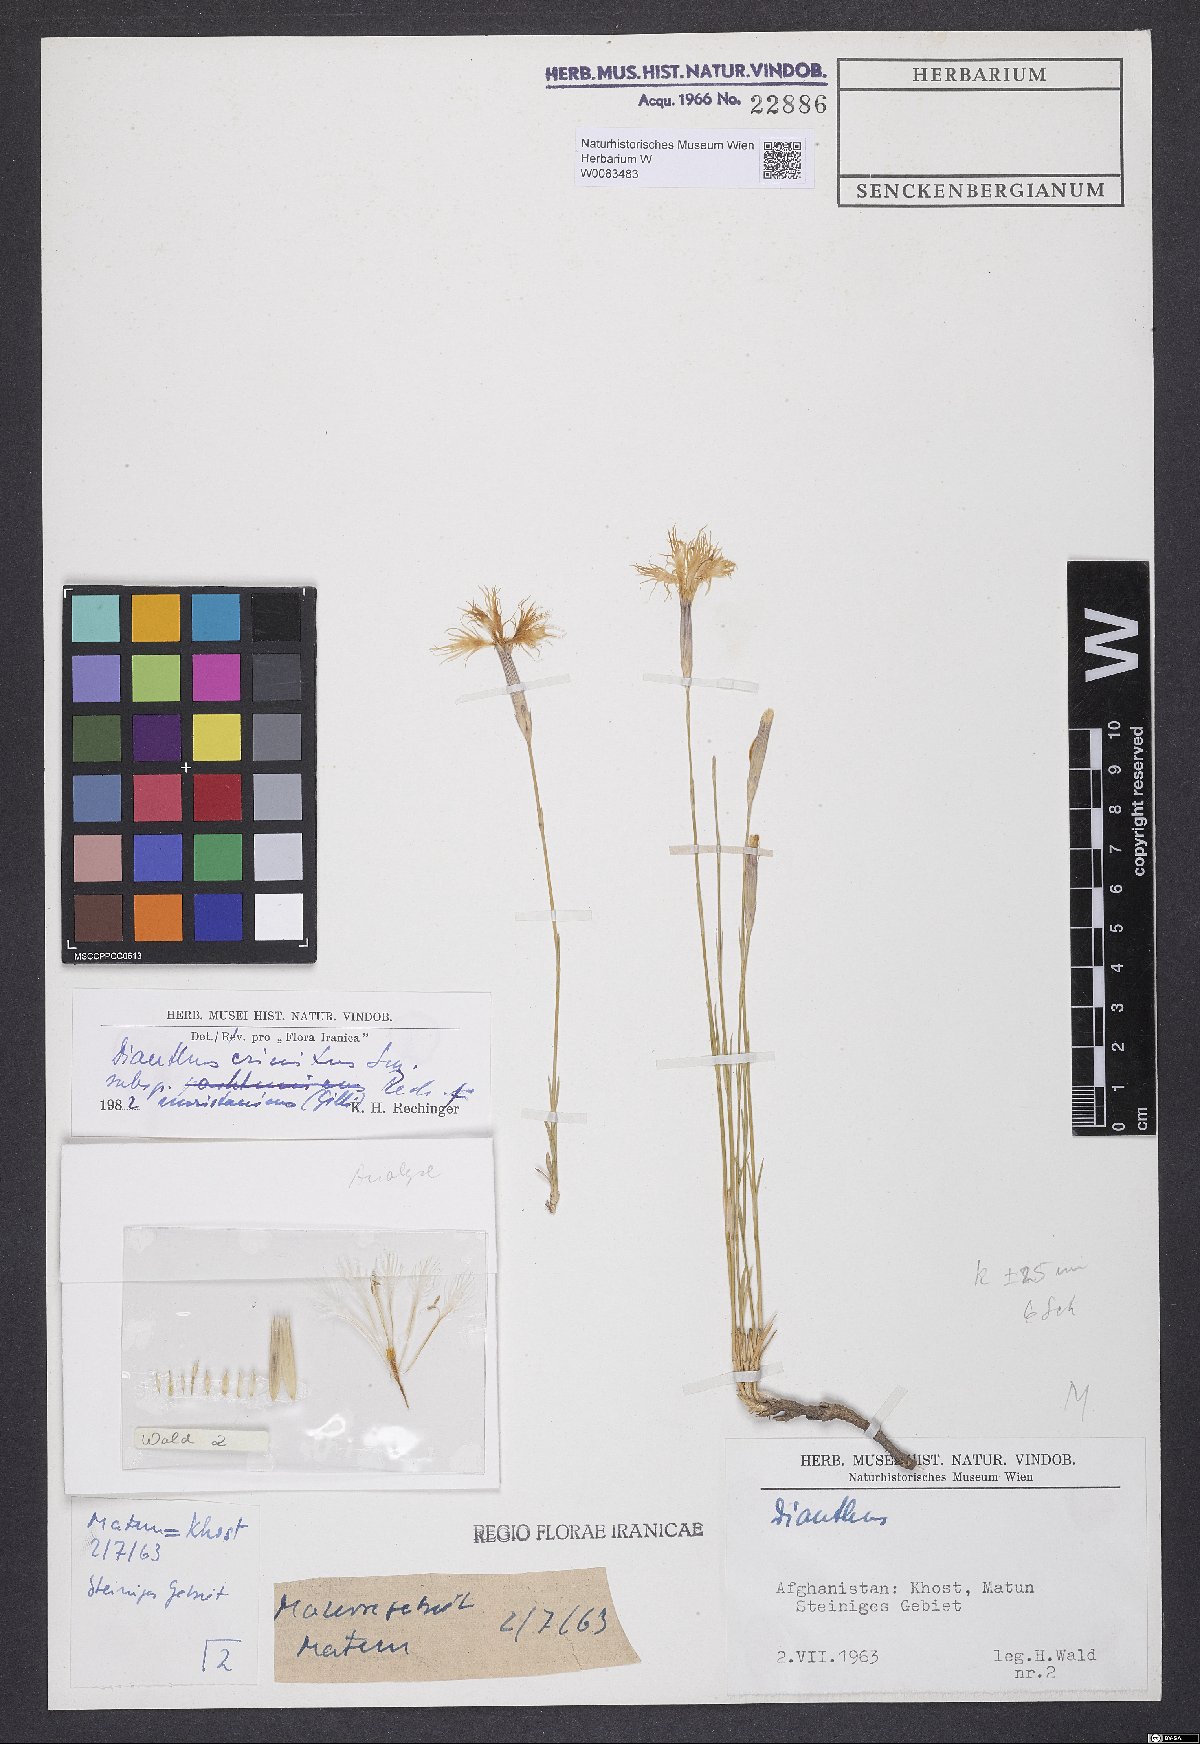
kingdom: Plantae
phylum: Tracheophyta
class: Magnoliopsida
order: Caryophyllales
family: Caryophyllaceae
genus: Dianthus
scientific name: Dianthus crinitus
